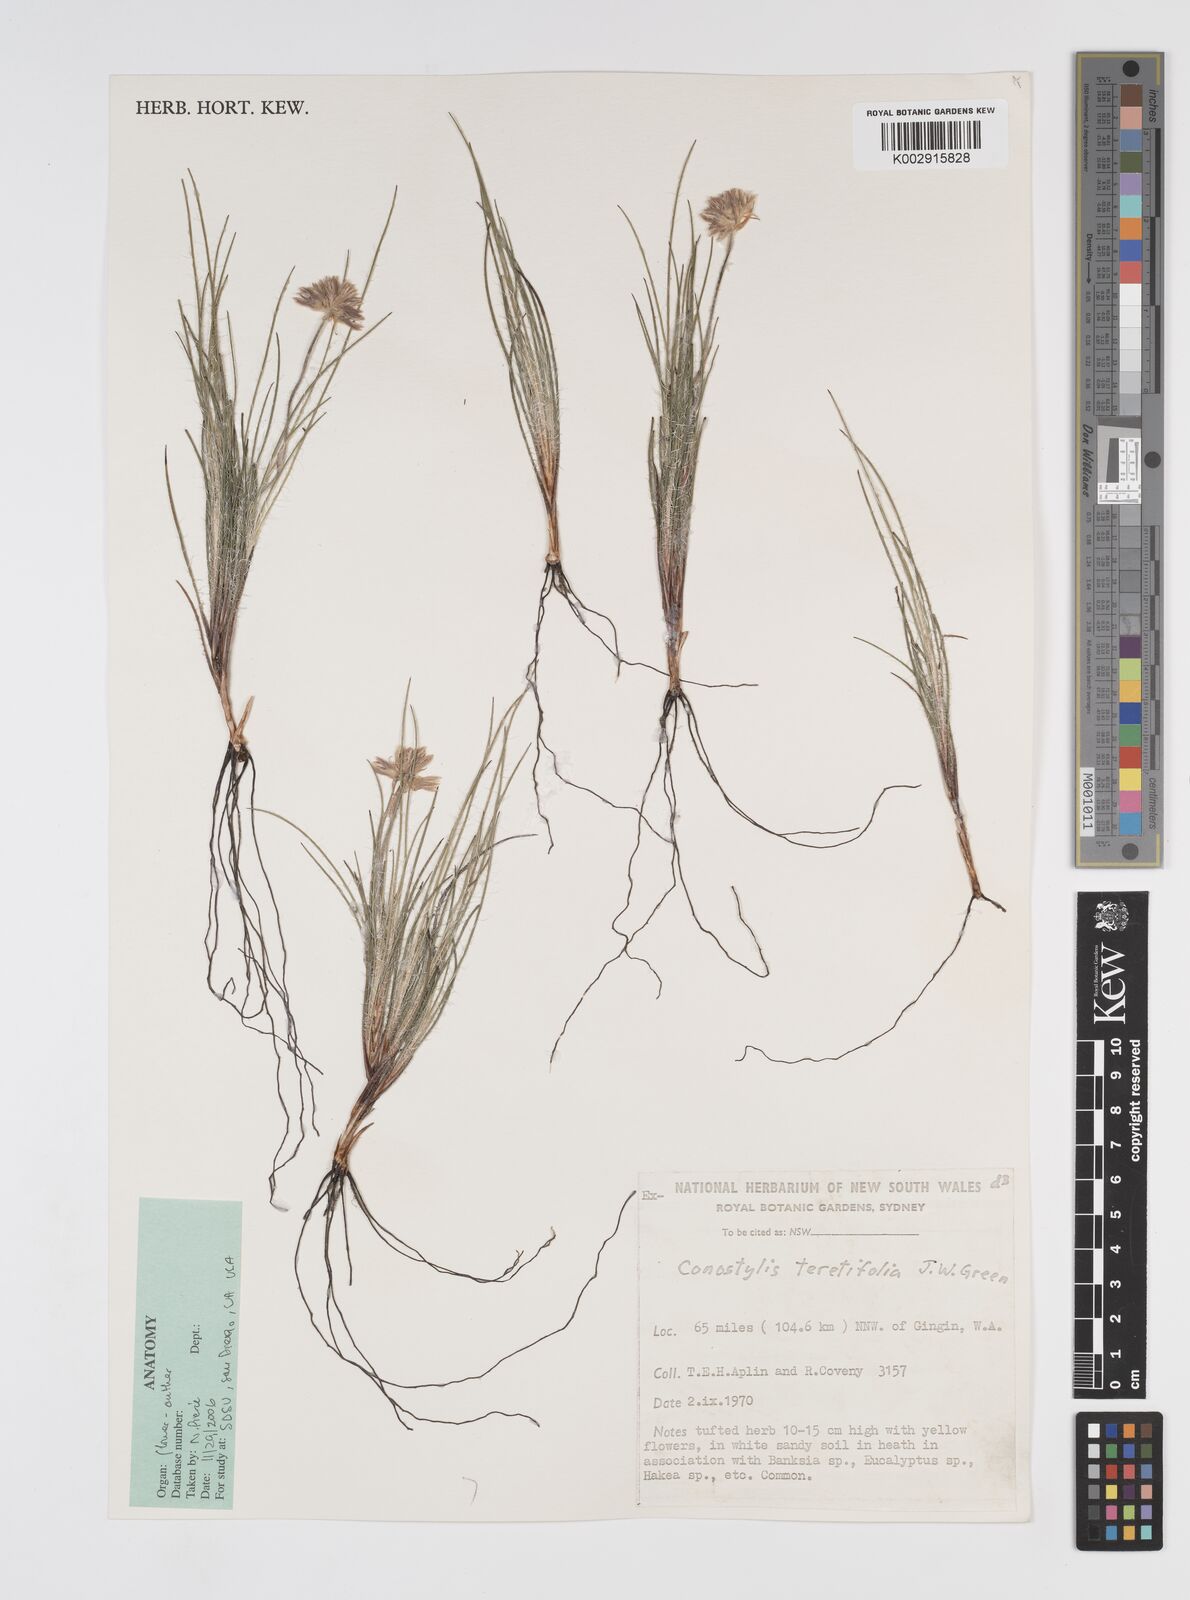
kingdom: Plantae
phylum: Tracheophyta
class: Liliopsida
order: Commelinales
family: Haemodoraceae
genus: Conostylis
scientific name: Conostylis teretifolia
